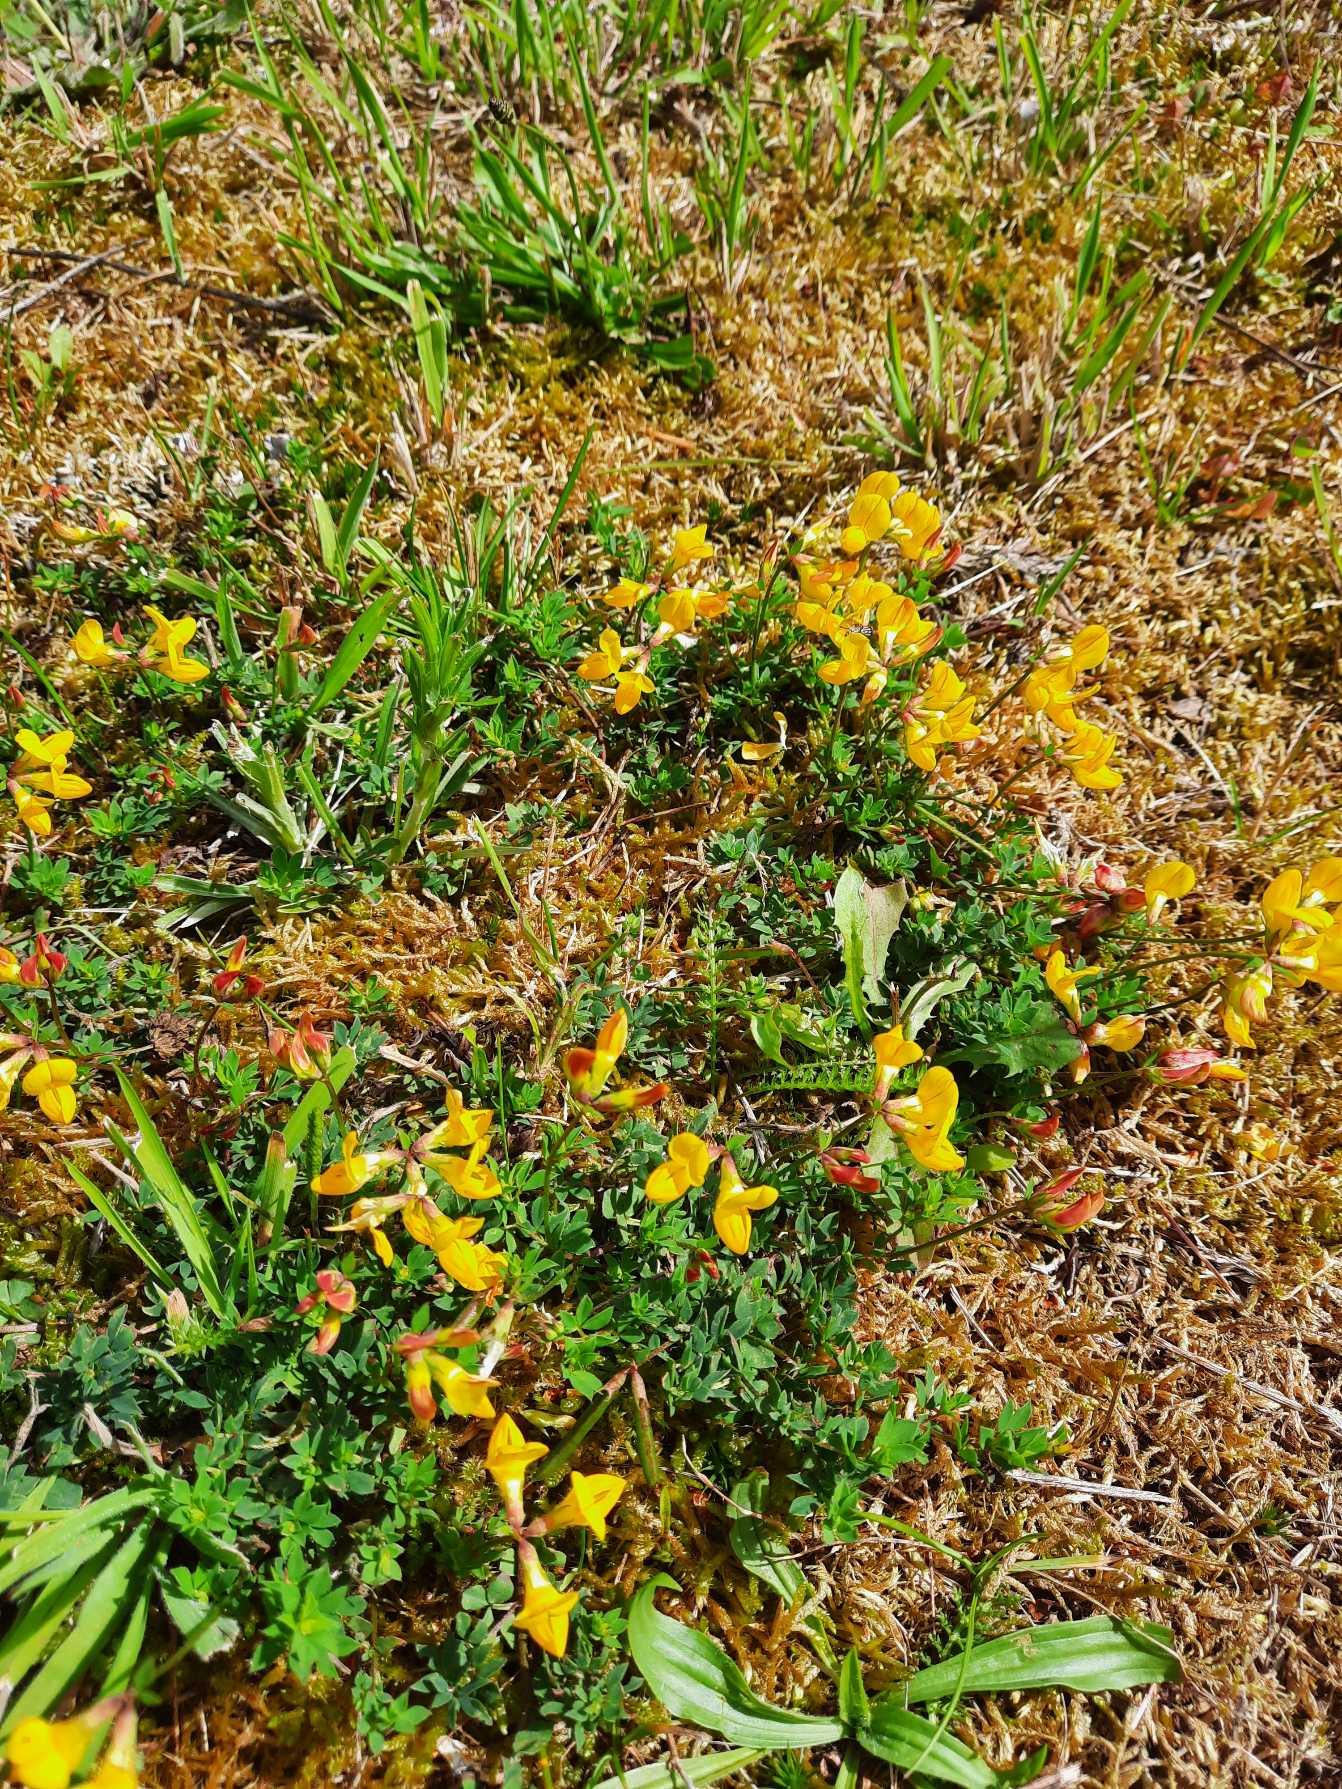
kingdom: Plantae
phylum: Tracheophyta
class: Magnoliopsida
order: Fabales
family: Fabaceae
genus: Lotus
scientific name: Lotus corniculatus
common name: Almindelig kællingetand
